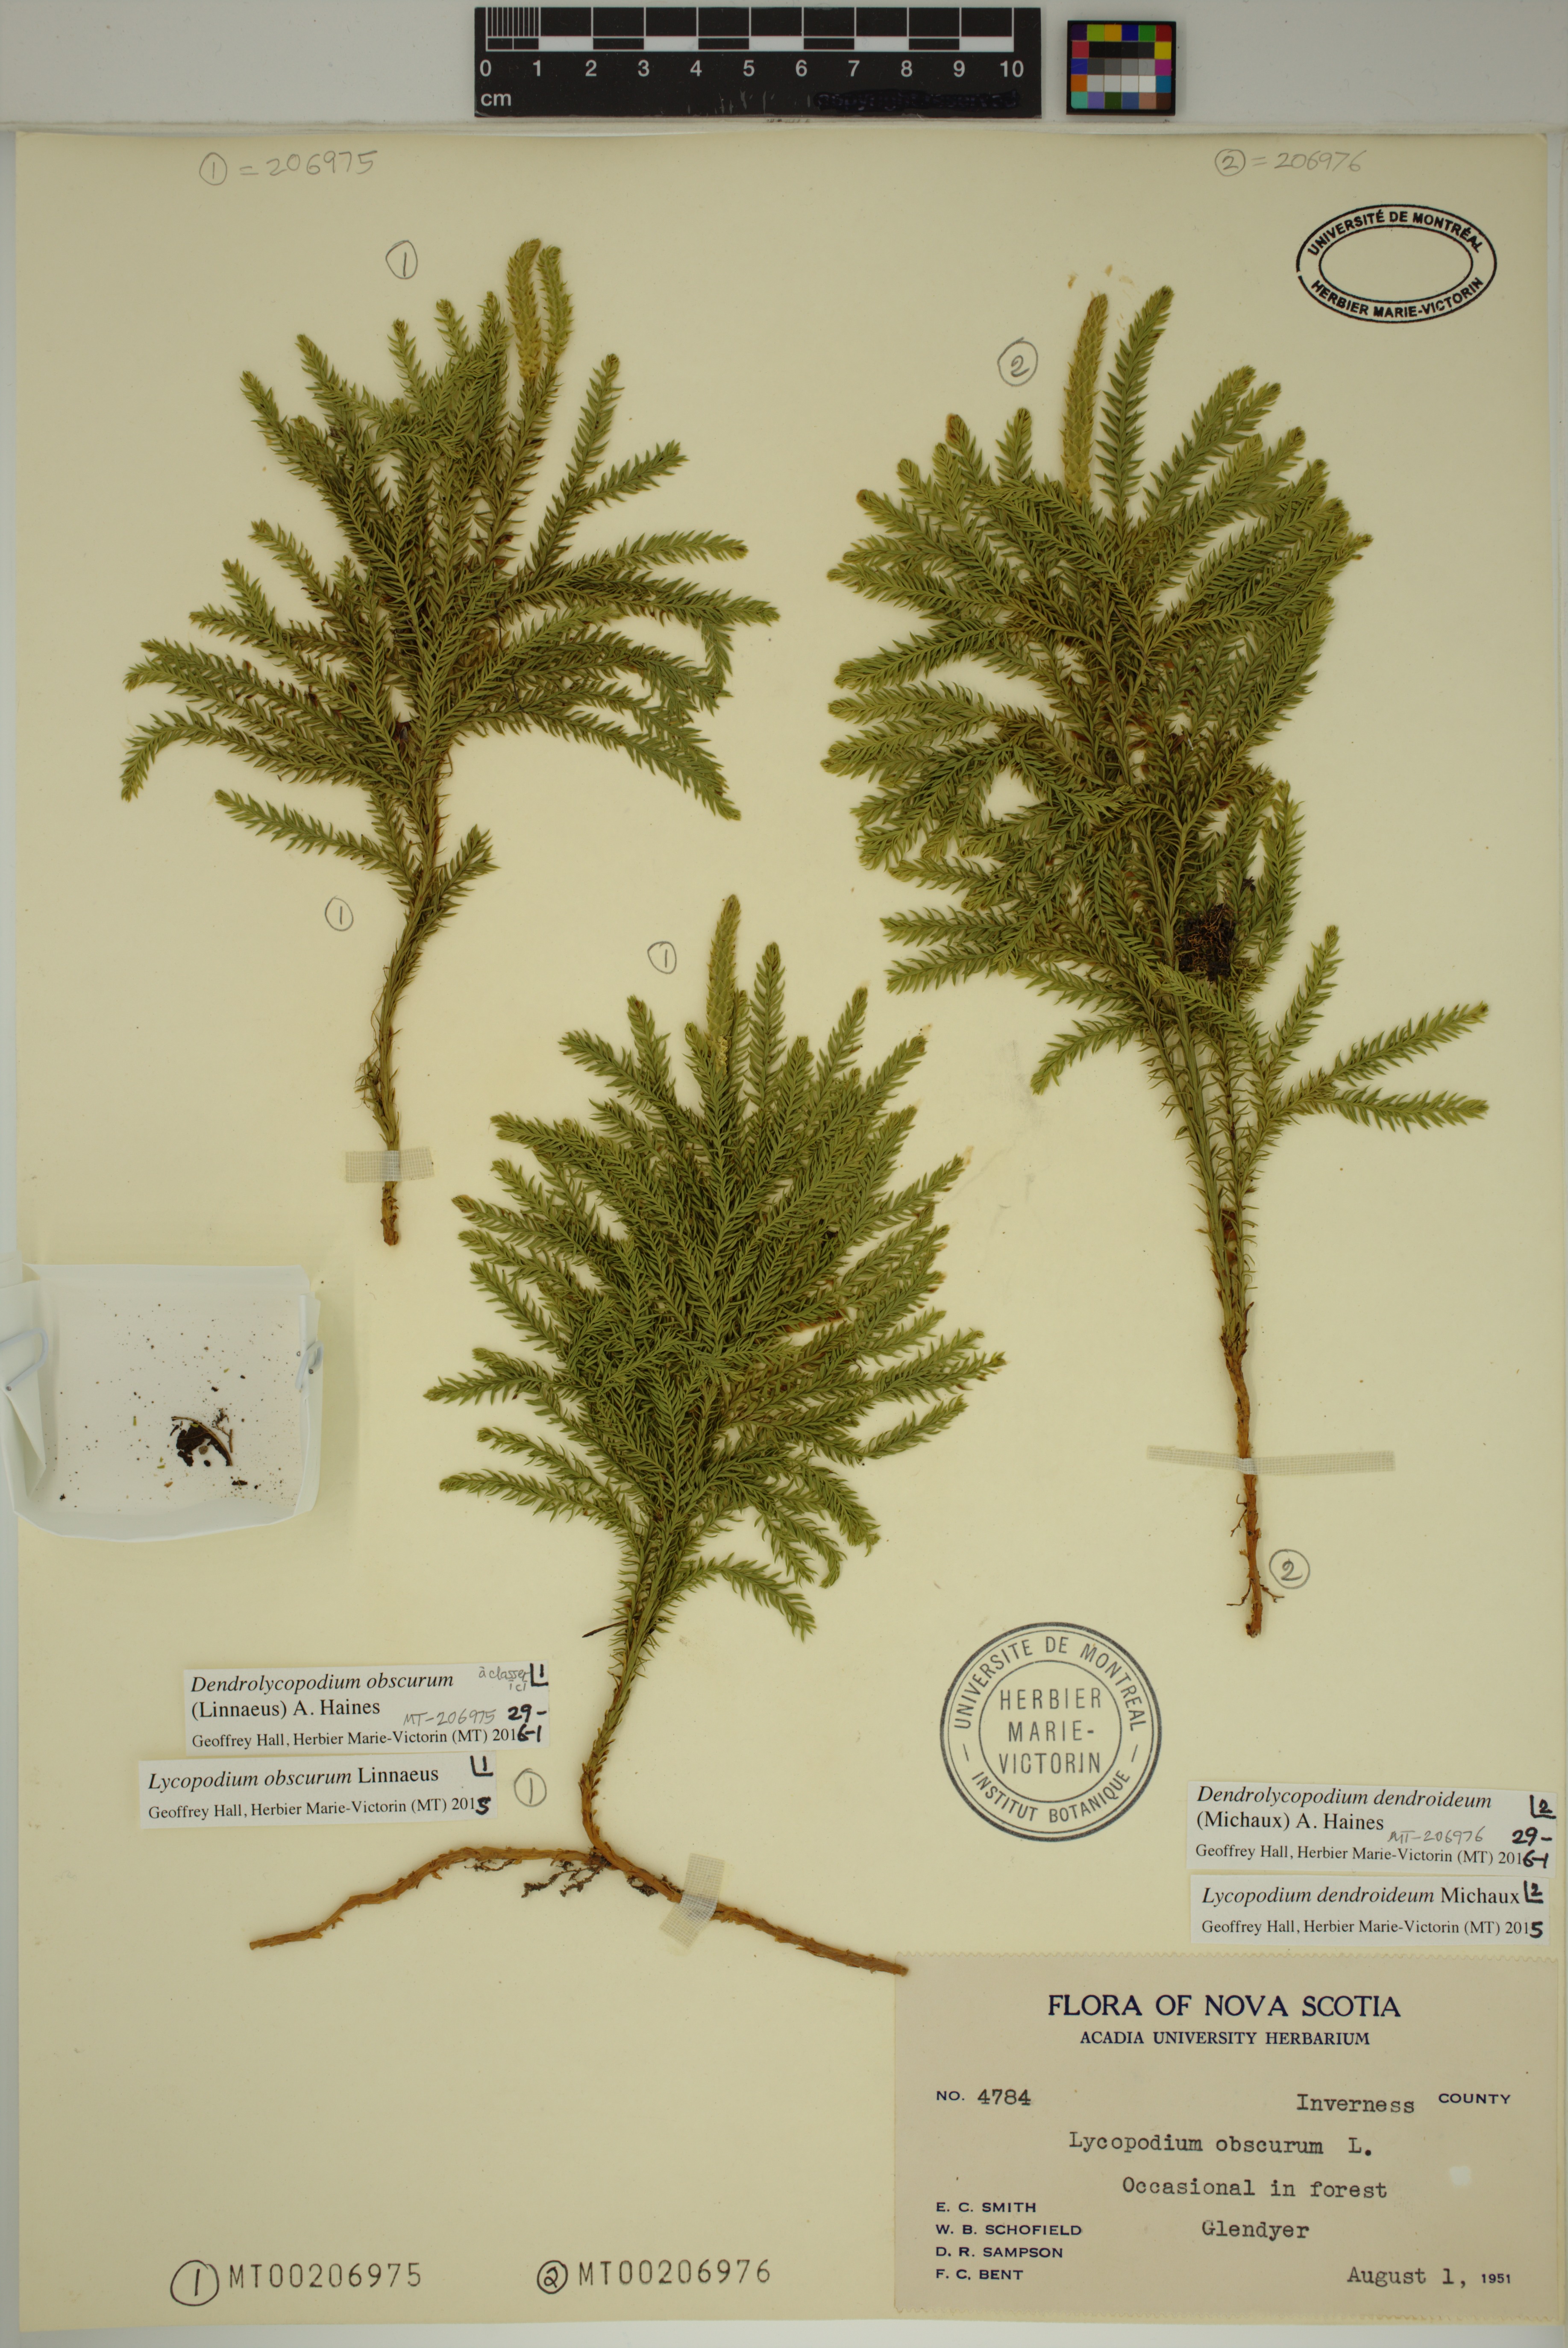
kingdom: Plantae
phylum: Tracheophyta
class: Lycopodiopsida
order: Lycopodiales
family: Lycopodiaceae
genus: Dendrolycopodium
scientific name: Dendrolycopodium dendroideum
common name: Northern tree-clubmoss
